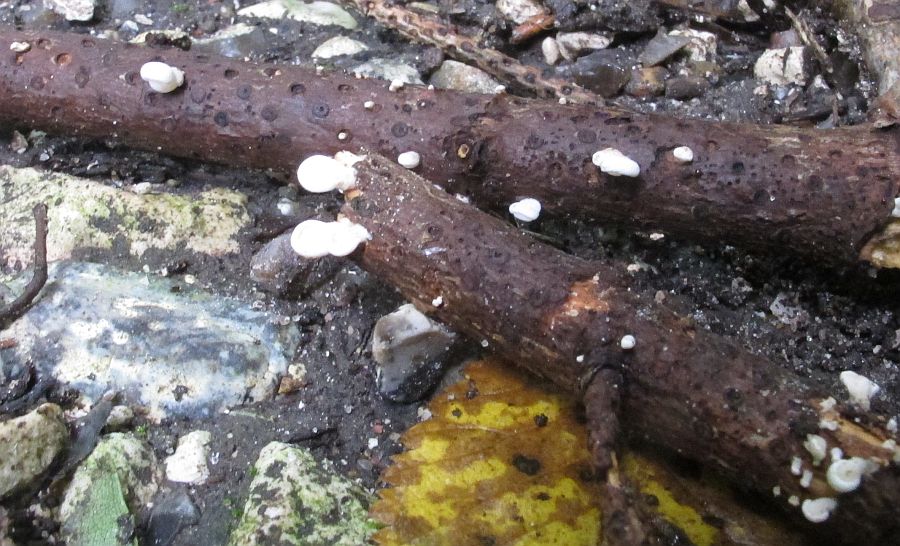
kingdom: Fungi
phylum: Basidiomycota
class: Agaricomycetes
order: Agaricales
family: Mycenaceae
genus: Panellus
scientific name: Panellus mitis
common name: mild epaulethat
